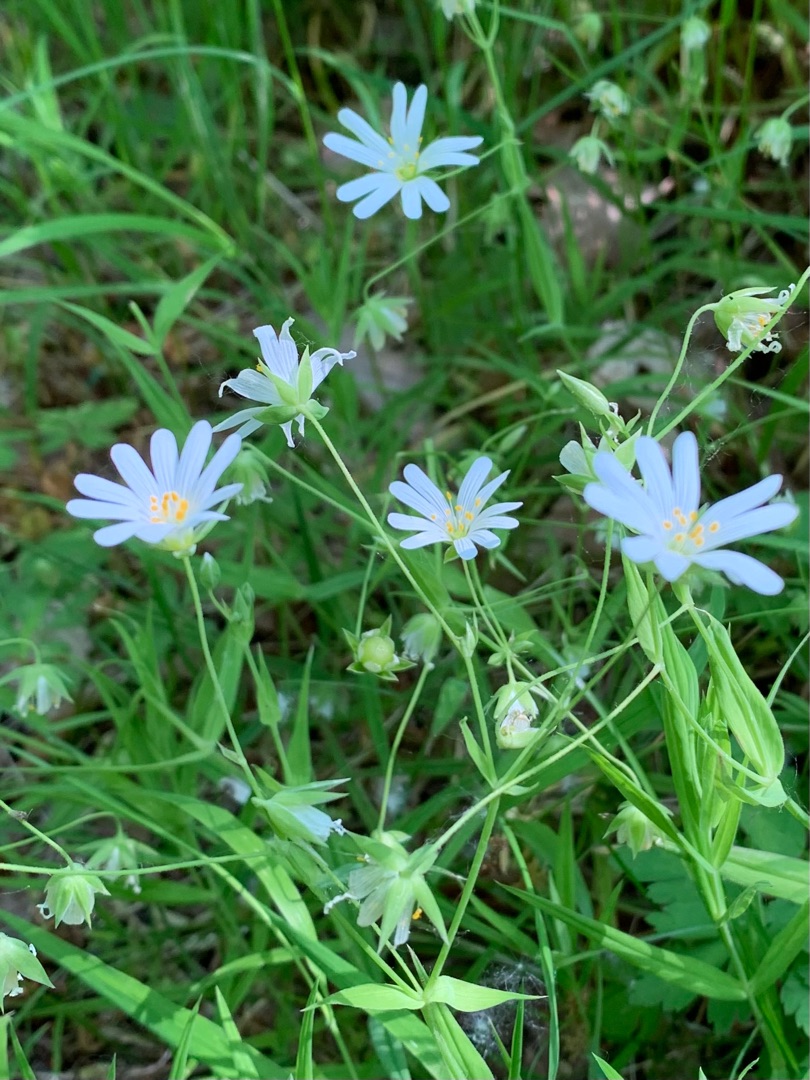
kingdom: Plantae
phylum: Tracheophyta
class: Magnoliopsida
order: Caryophyllales
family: Caryophyllaceae
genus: Rabelera
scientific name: Rabelera holostea
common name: Stor fladstjerne
